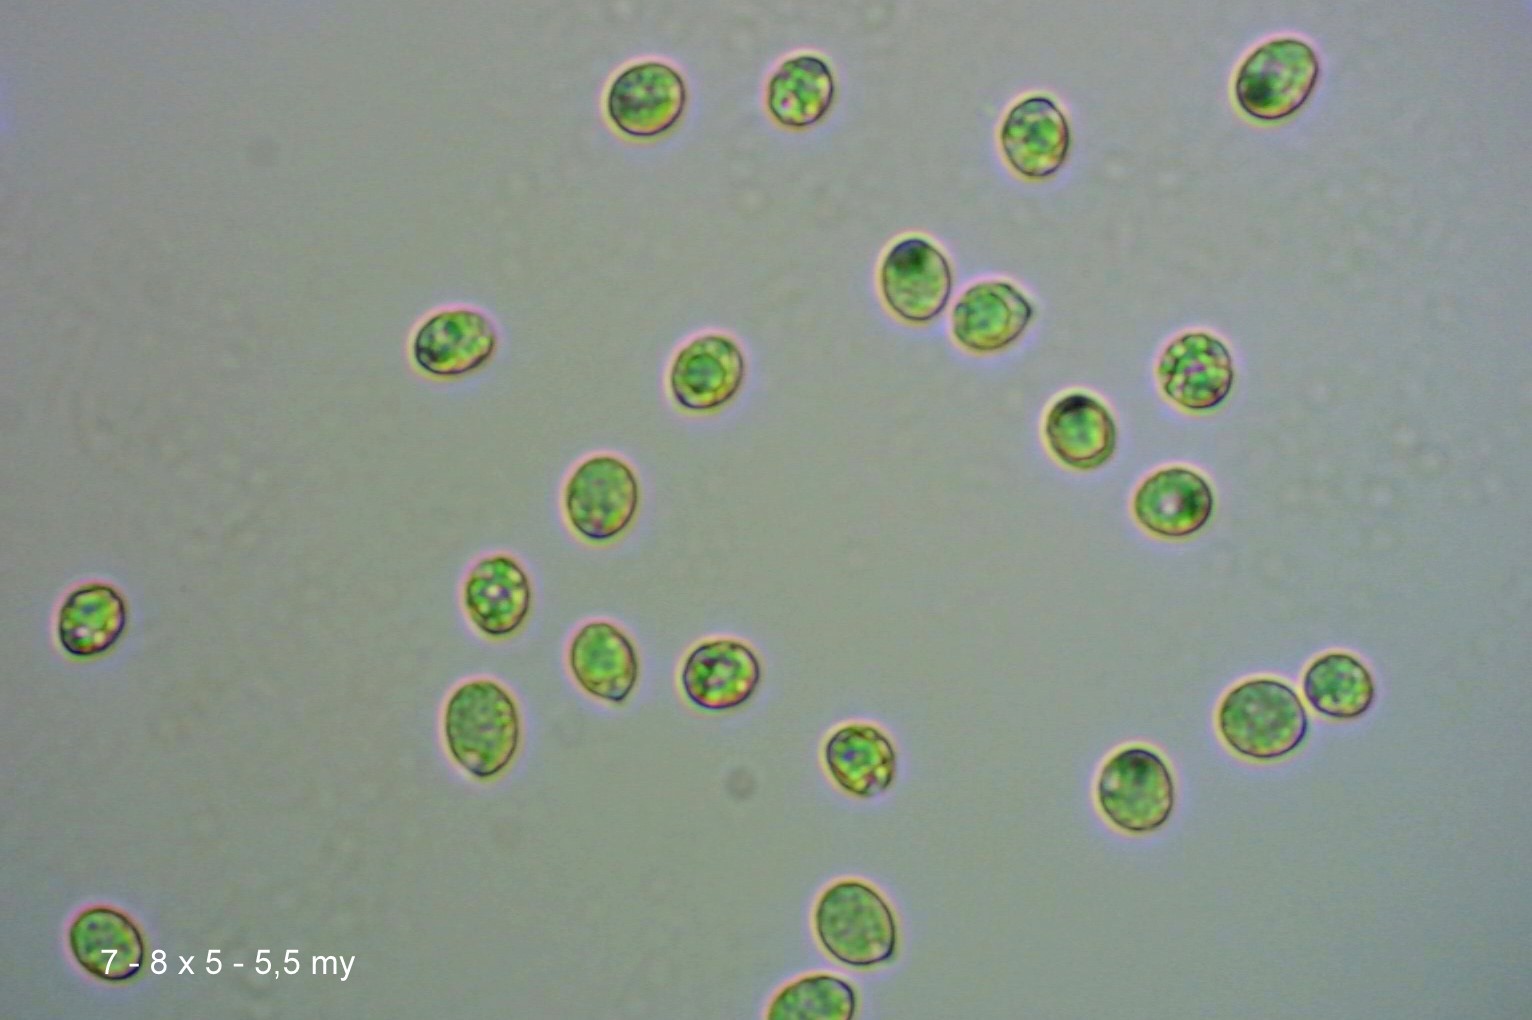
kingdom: Fungi
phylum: Basidiomycota
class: Agaricomycetes
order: Agaricales
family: Hygrophoraceae
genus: Cuphophyllus
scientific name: Cuphophyllus flavipes
